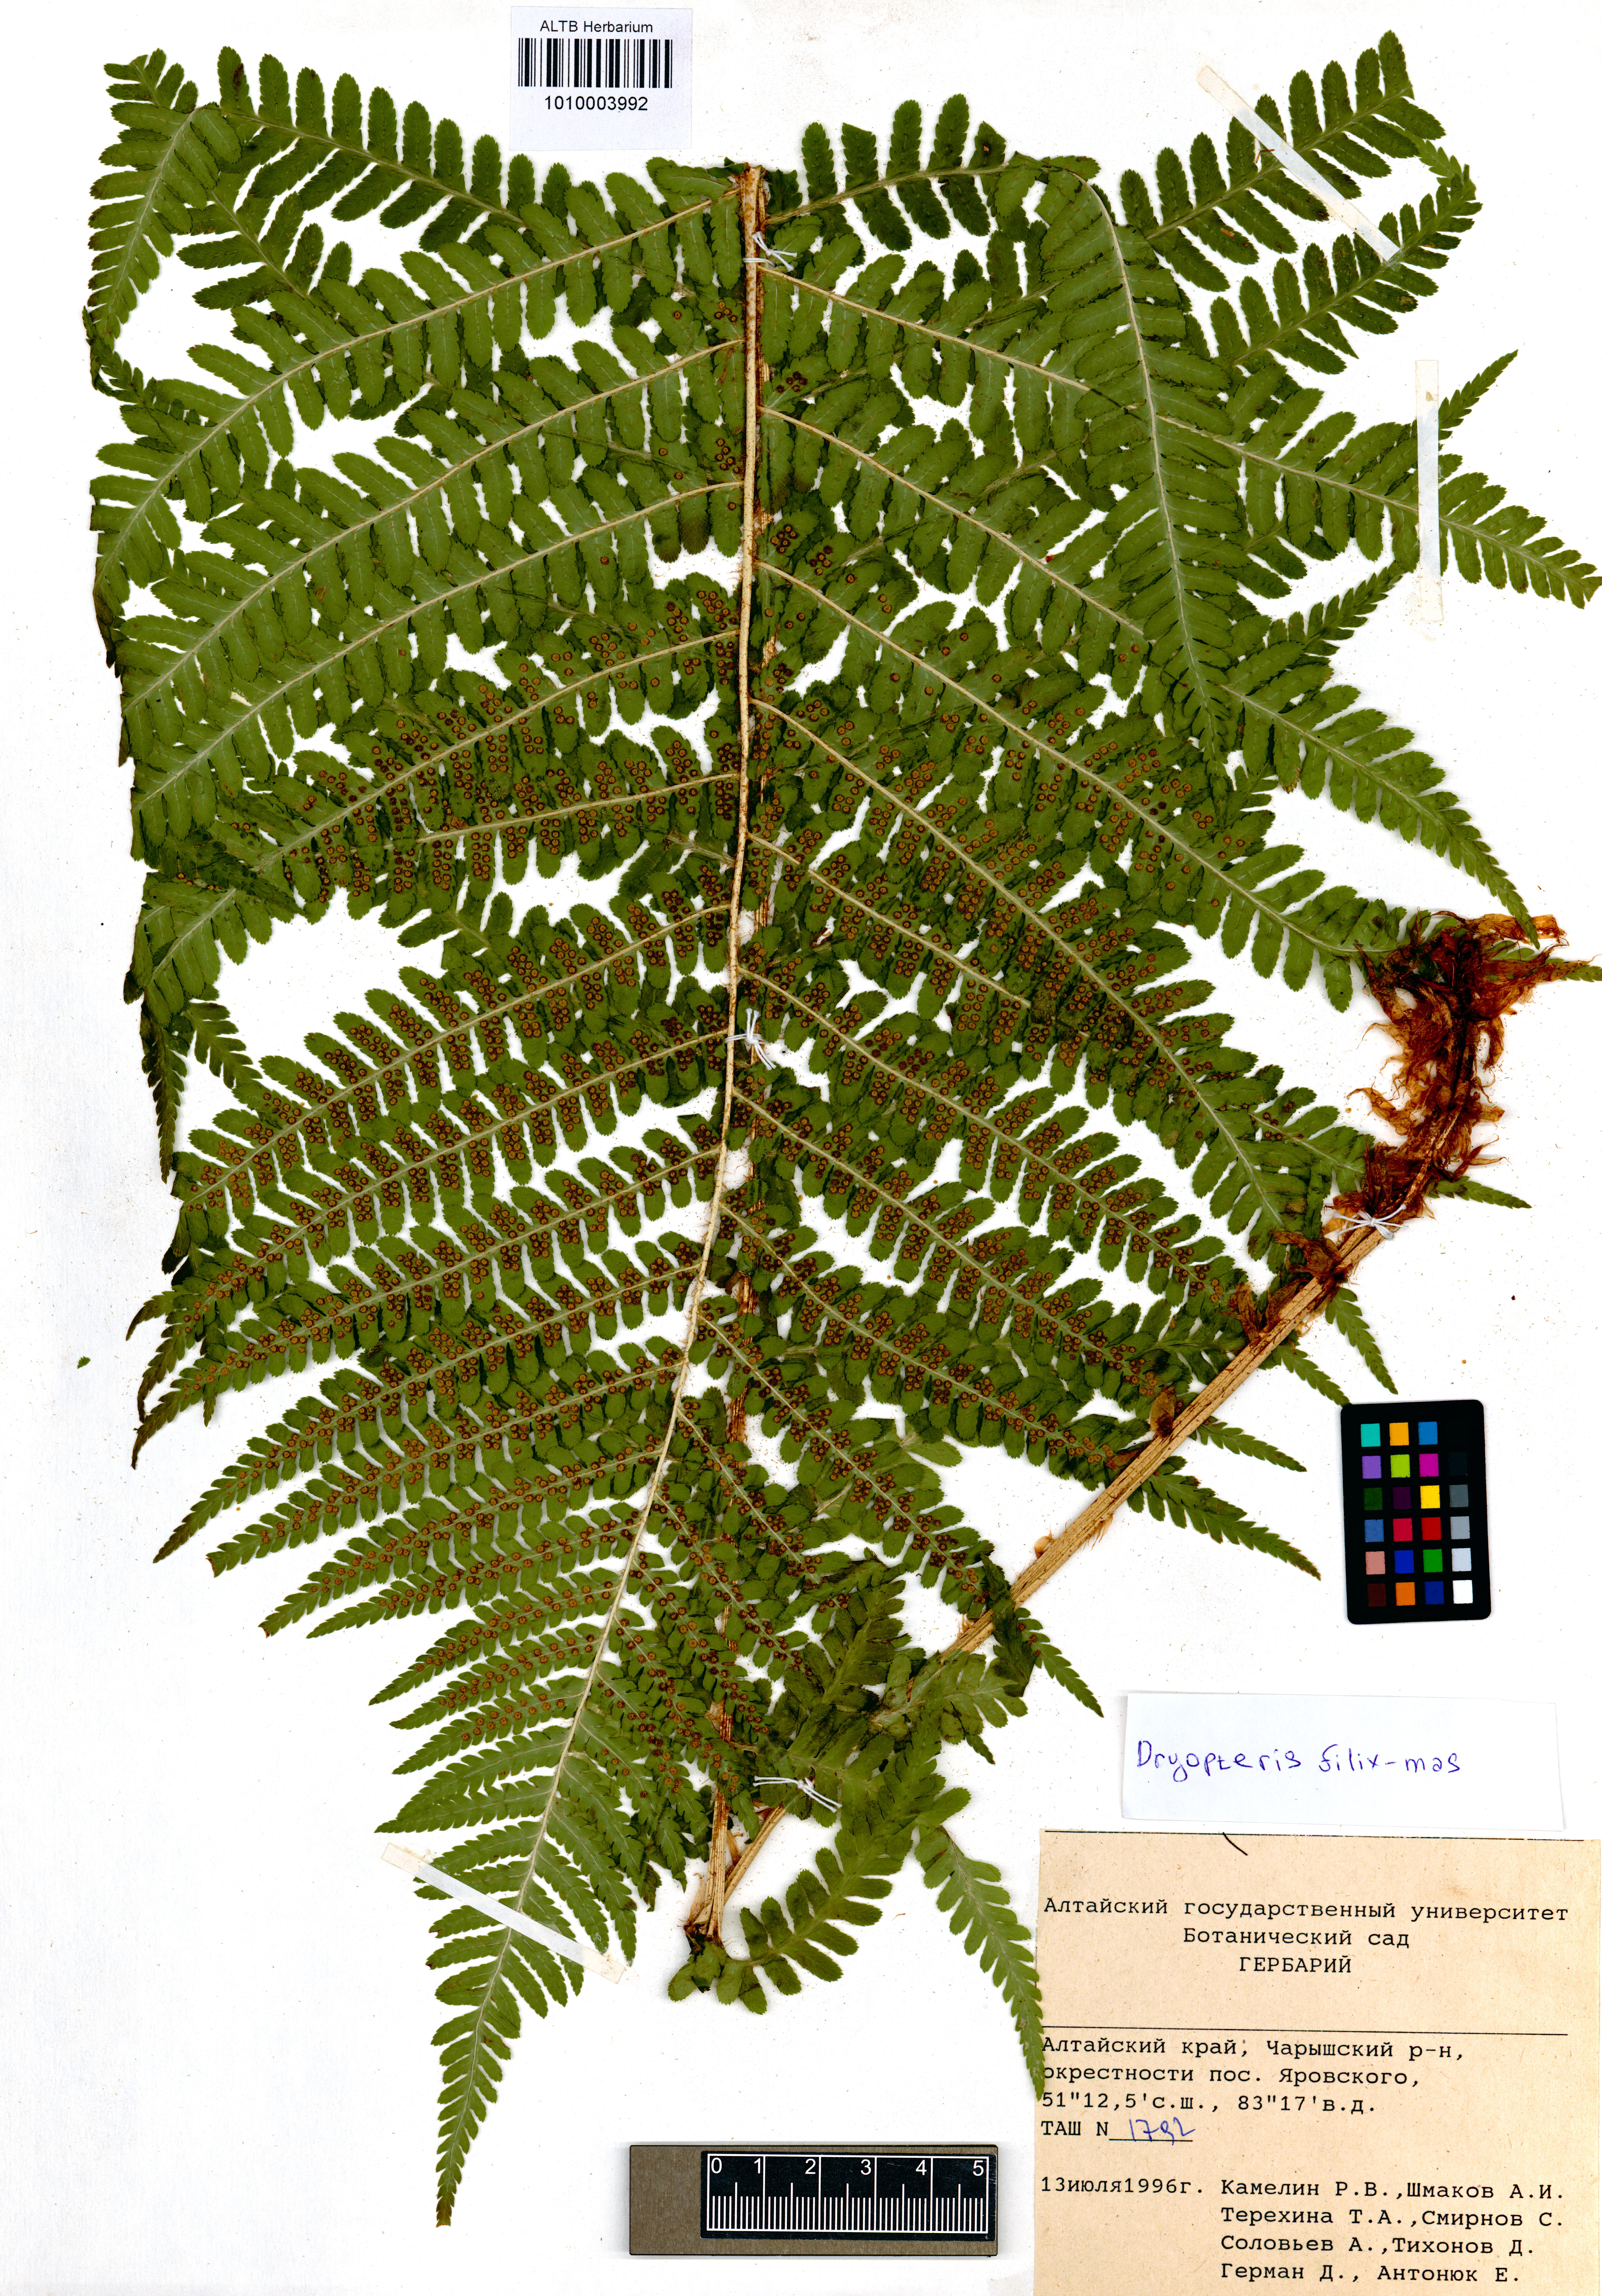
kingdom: Plantae
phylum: Tracheophyta
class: Polypodiopsida
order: Polypodiales
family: Dryopteridaceae
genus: Dryopteris
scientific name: Dryopteris filix-mas
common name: Male fern
